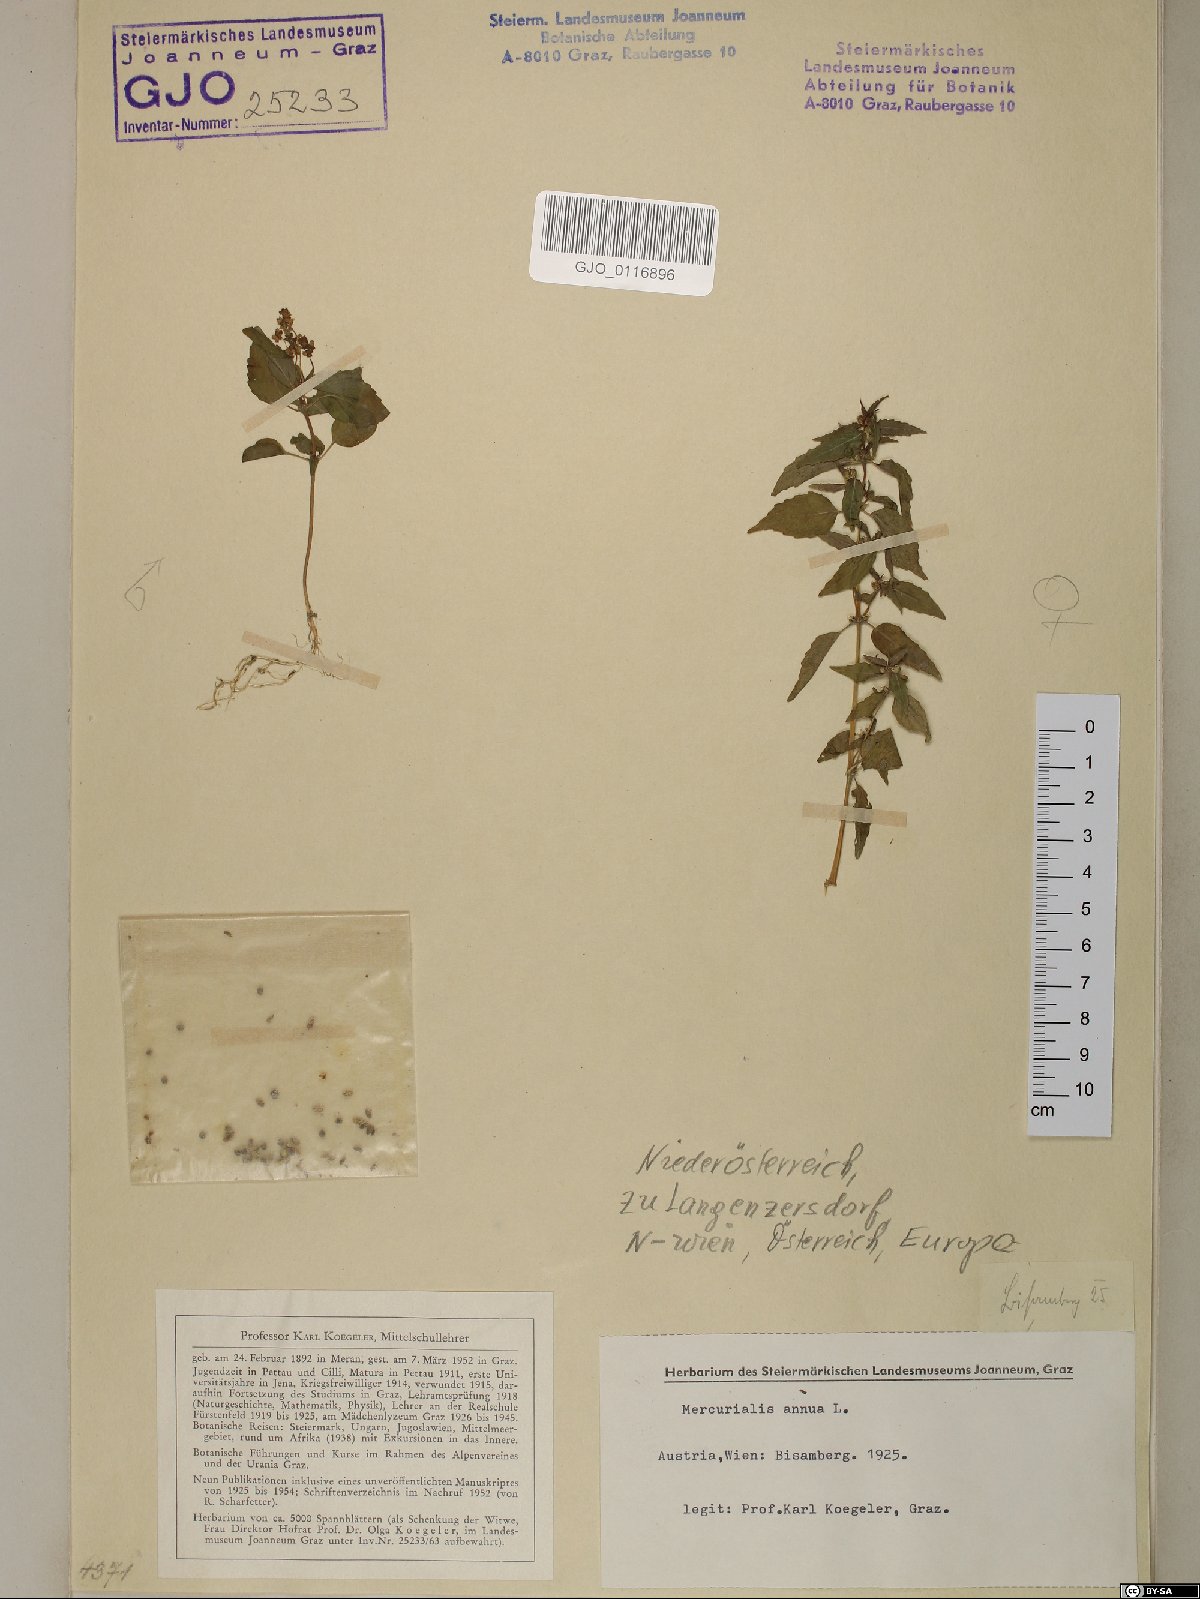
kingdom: Plantae
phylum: Tracheophyta
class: Magnoliopsida
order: Malpighiales
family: Euphorbiaceae
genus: Mercurialis
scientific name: Mercurialis annua
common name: Annual mercury
